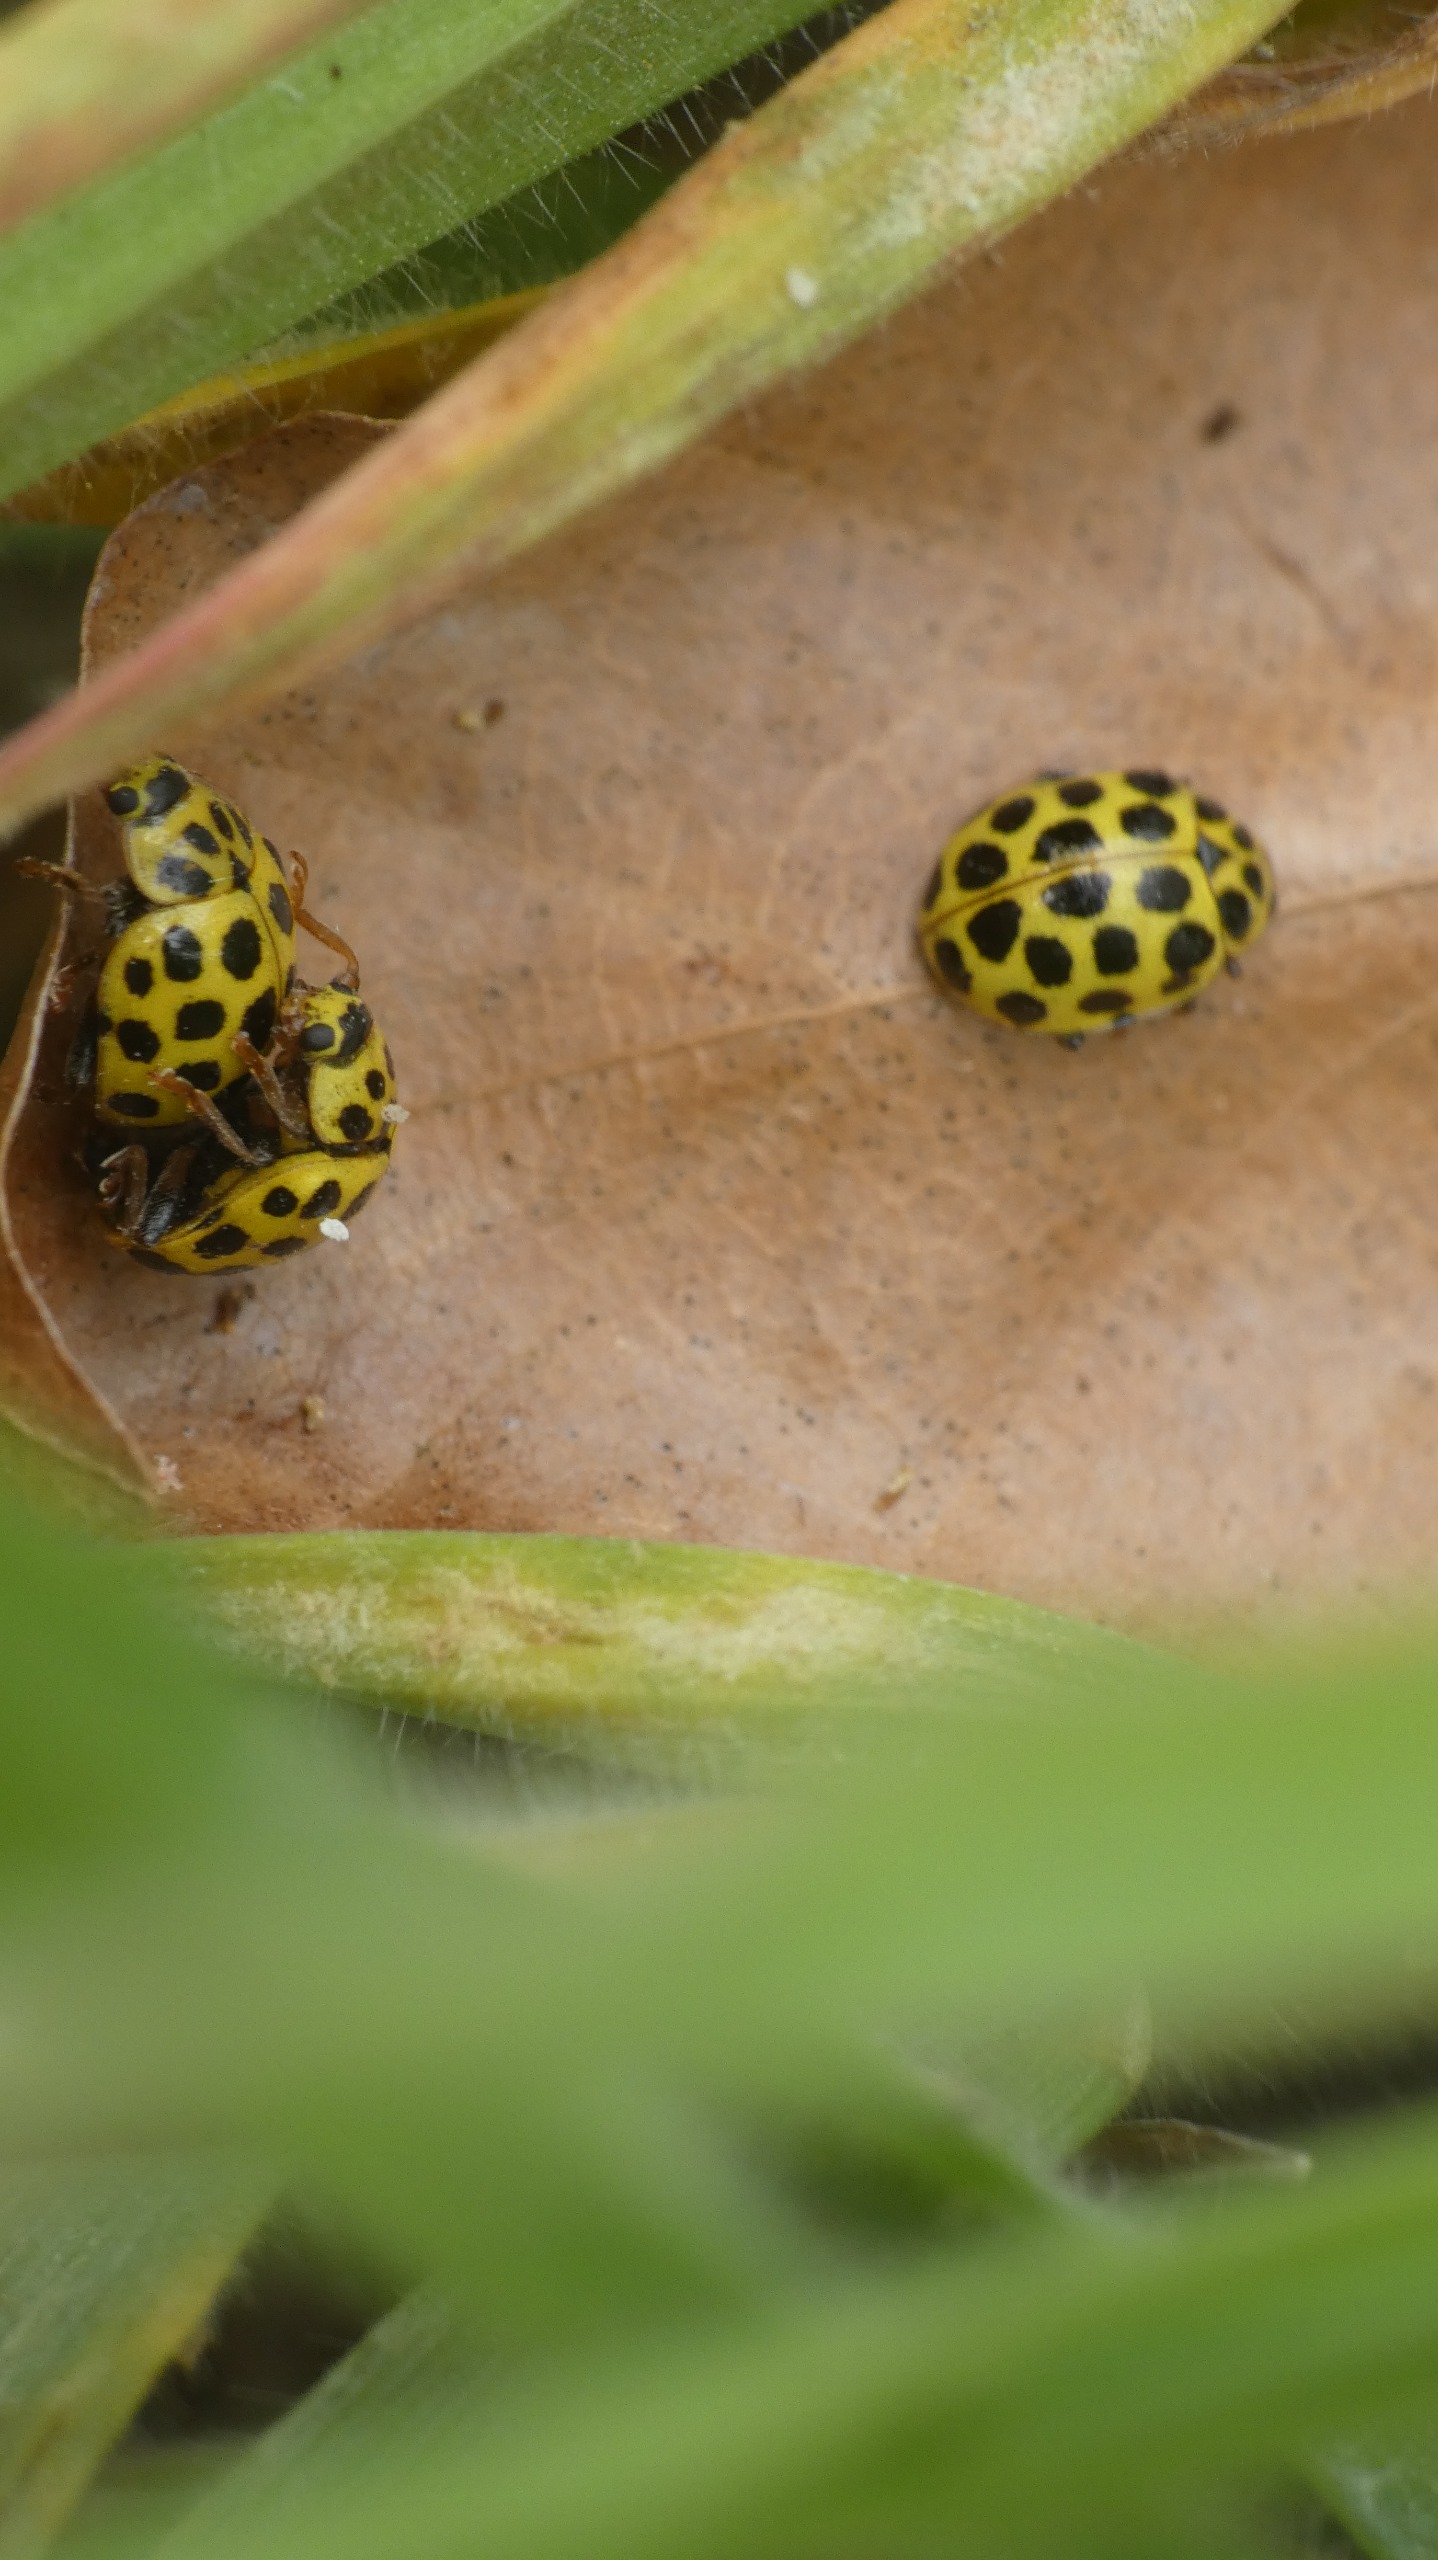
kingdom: Animalia
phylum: Arthropoda
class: Insecta
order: Coleoptera
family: Coccinellidae
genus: Psyllobora
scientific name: Psyllobora vigintiduopunctata
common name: Toogtyveplettet mariehøne
